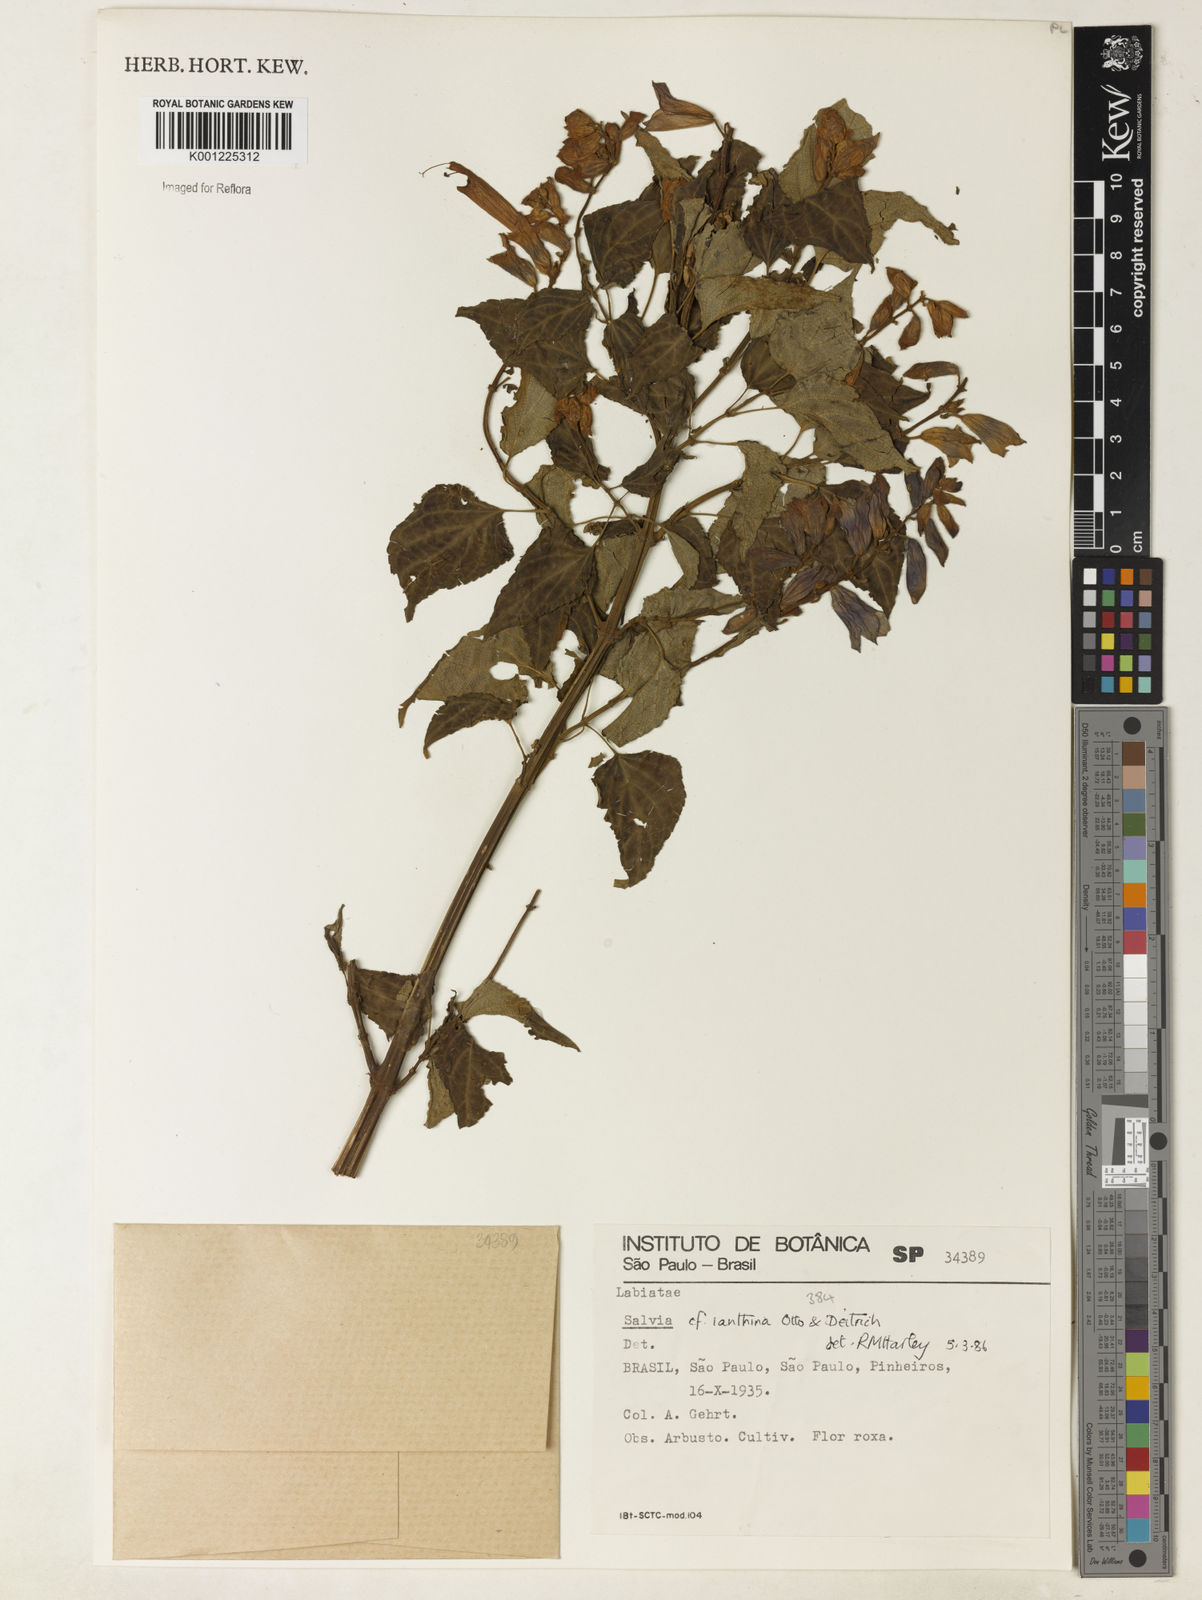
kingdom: Plantae
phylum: Tracheophyta
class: Magnoliopsida
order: Lamiales
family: Lamiaceae
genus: Salvia
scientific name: Salvia ianthina
